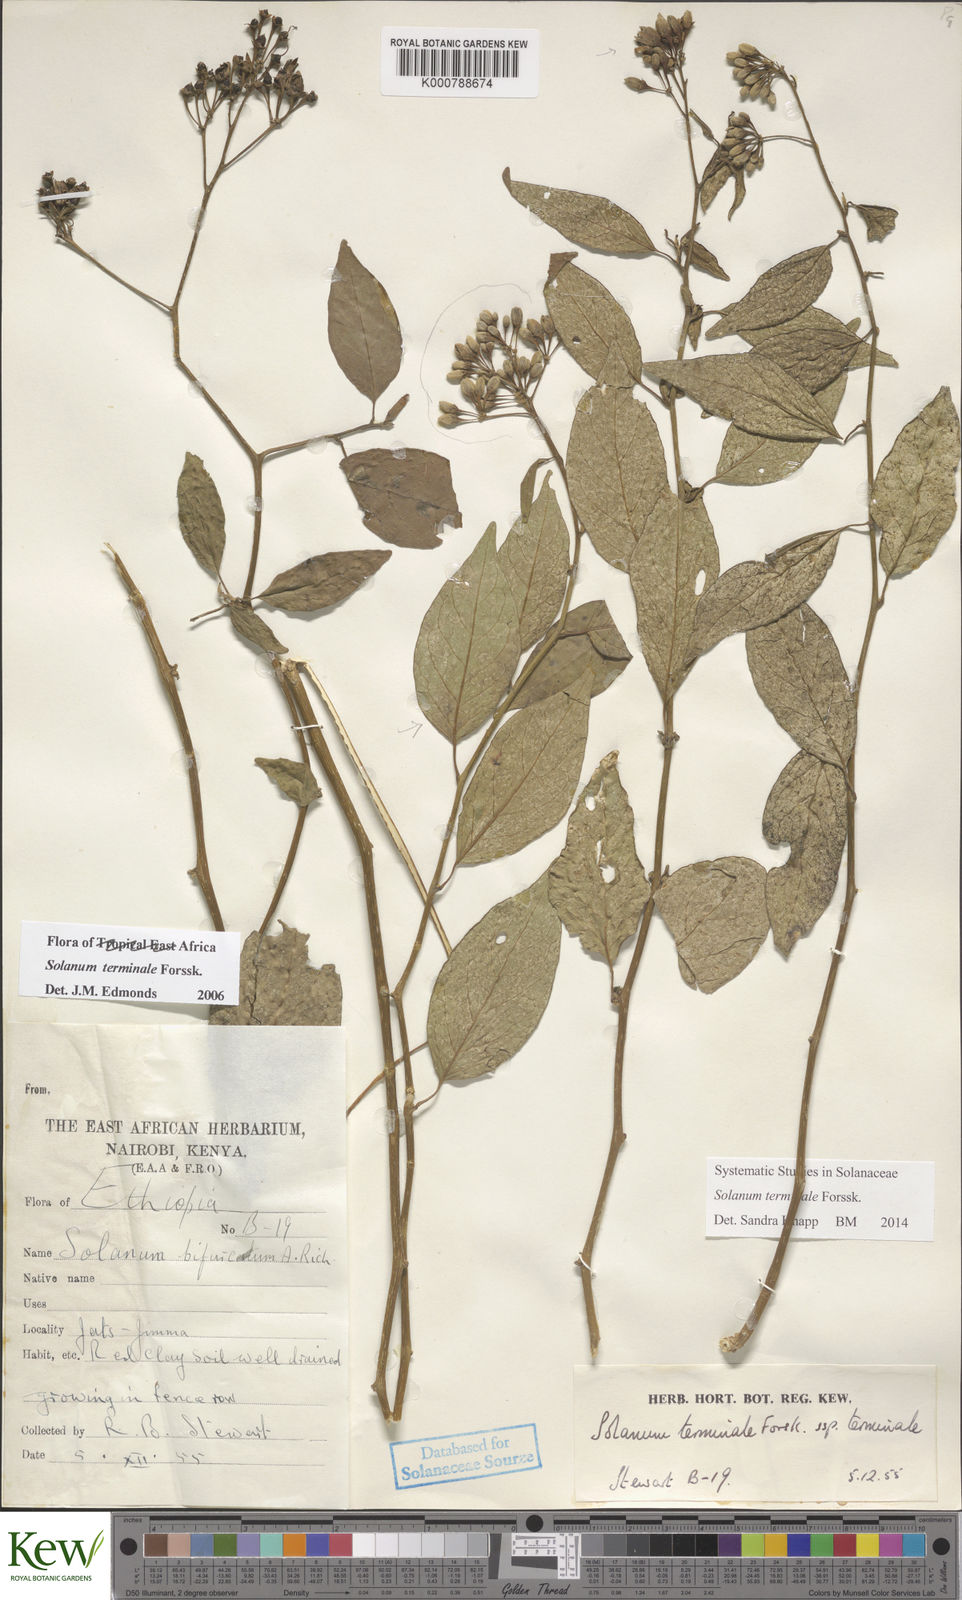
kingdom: Plantae
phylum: Tracheophyta
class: Magnoliopsida
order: Solanales
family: Solanaceae
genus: Solanum
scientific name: Solanum terminale
